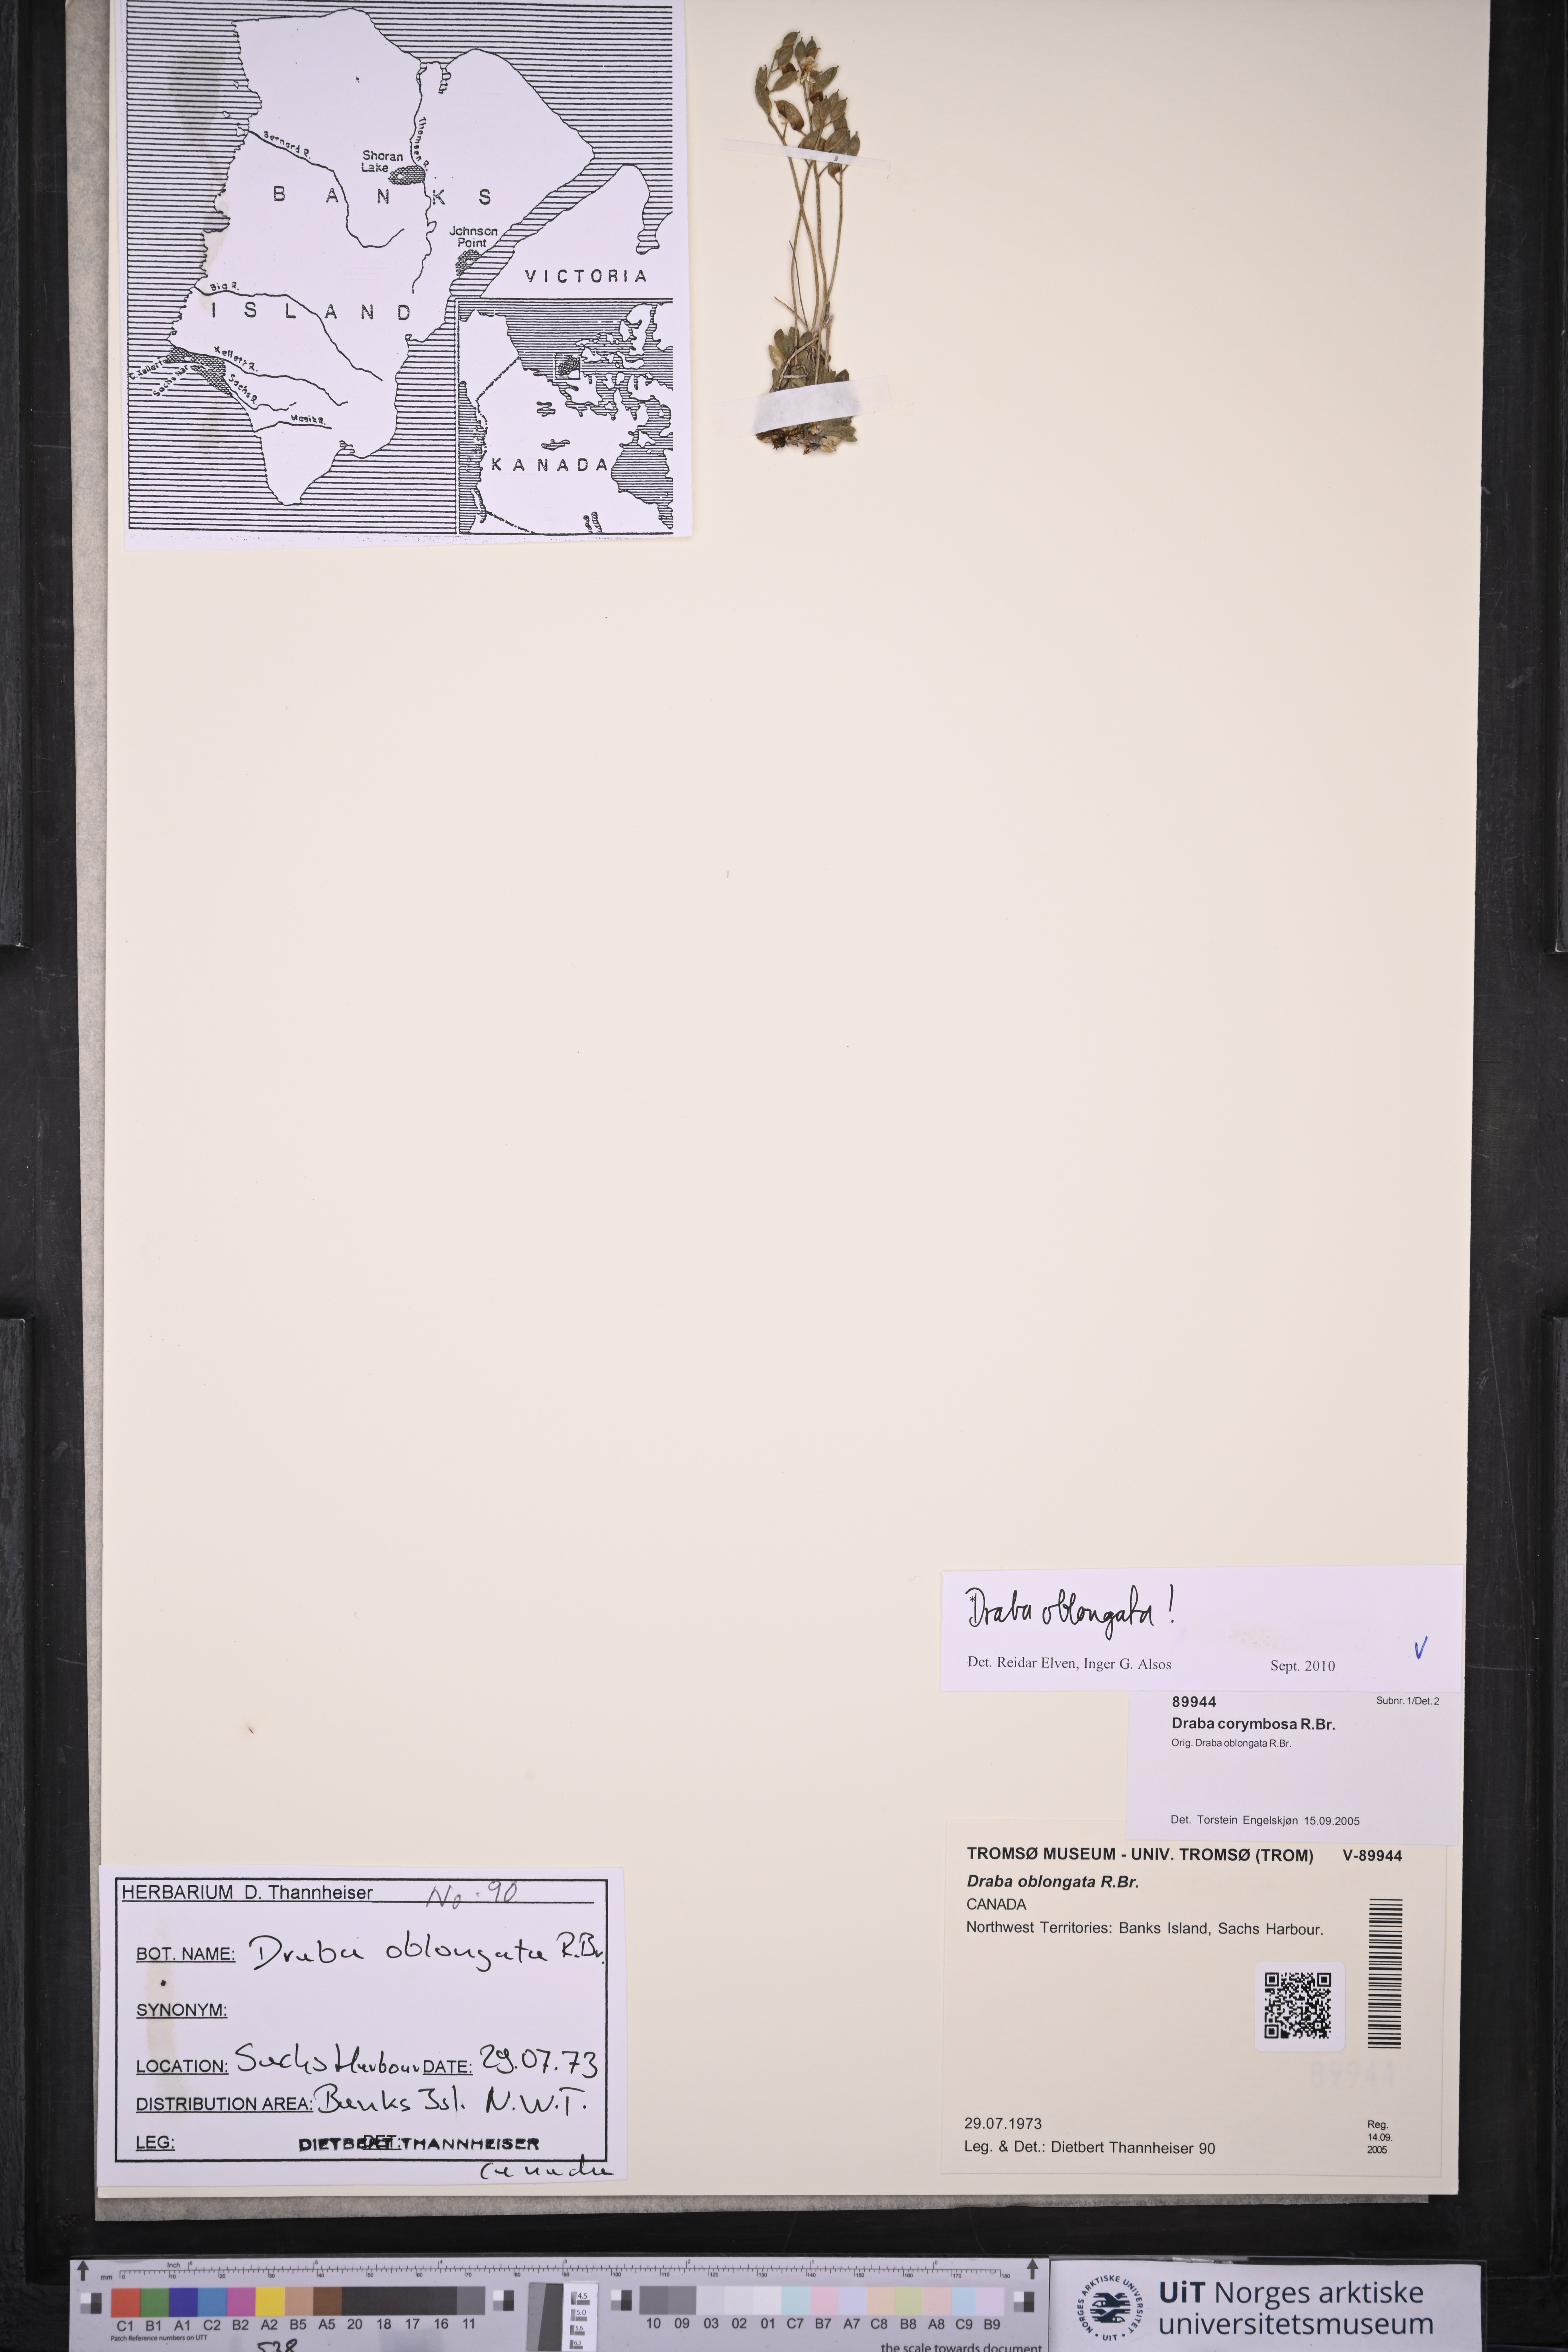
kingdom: Plantae
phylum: Tracheophyta
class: Magnoliopsida
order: Brassicales
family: Brassicaceae
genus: Draba
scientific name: Draba oblongata
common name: Canadian arctic draba
